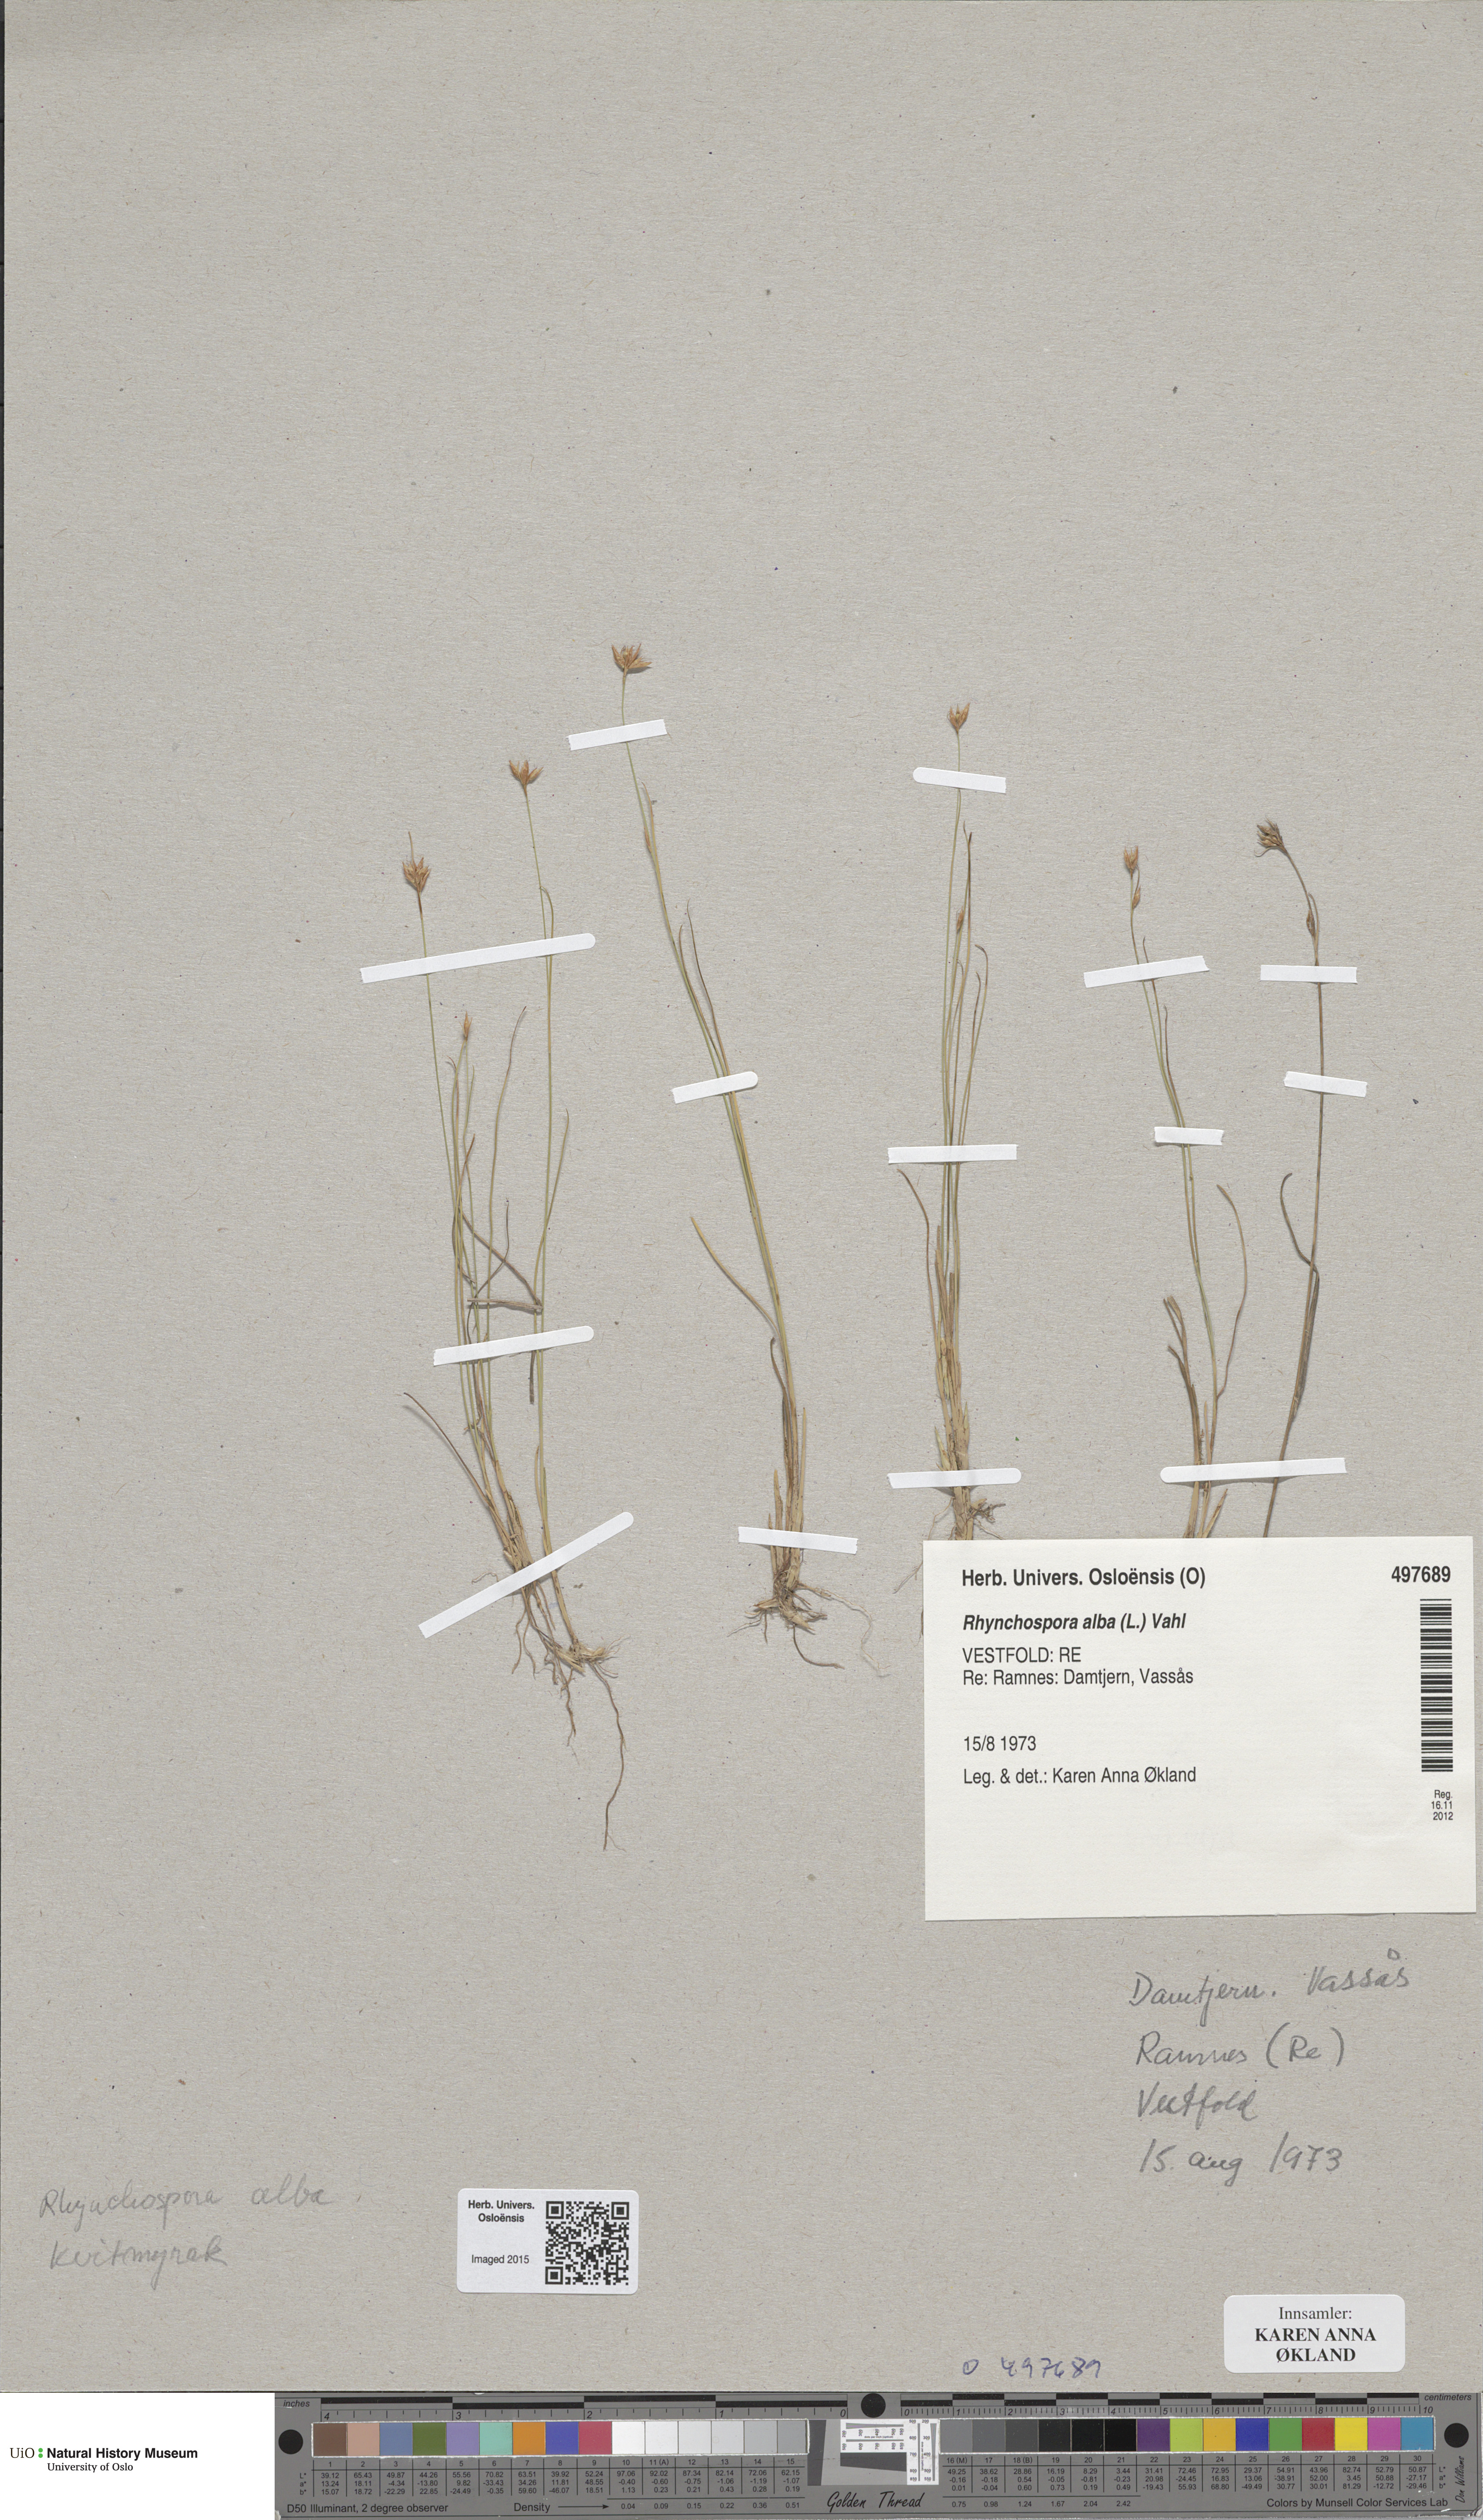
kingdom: Plantae
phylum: Tracheophyta
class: Liliopsida
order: Poales
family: Cyperaceae
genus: Rhynchospora
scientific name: Rhynchospora alba
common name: White beak-sedge
